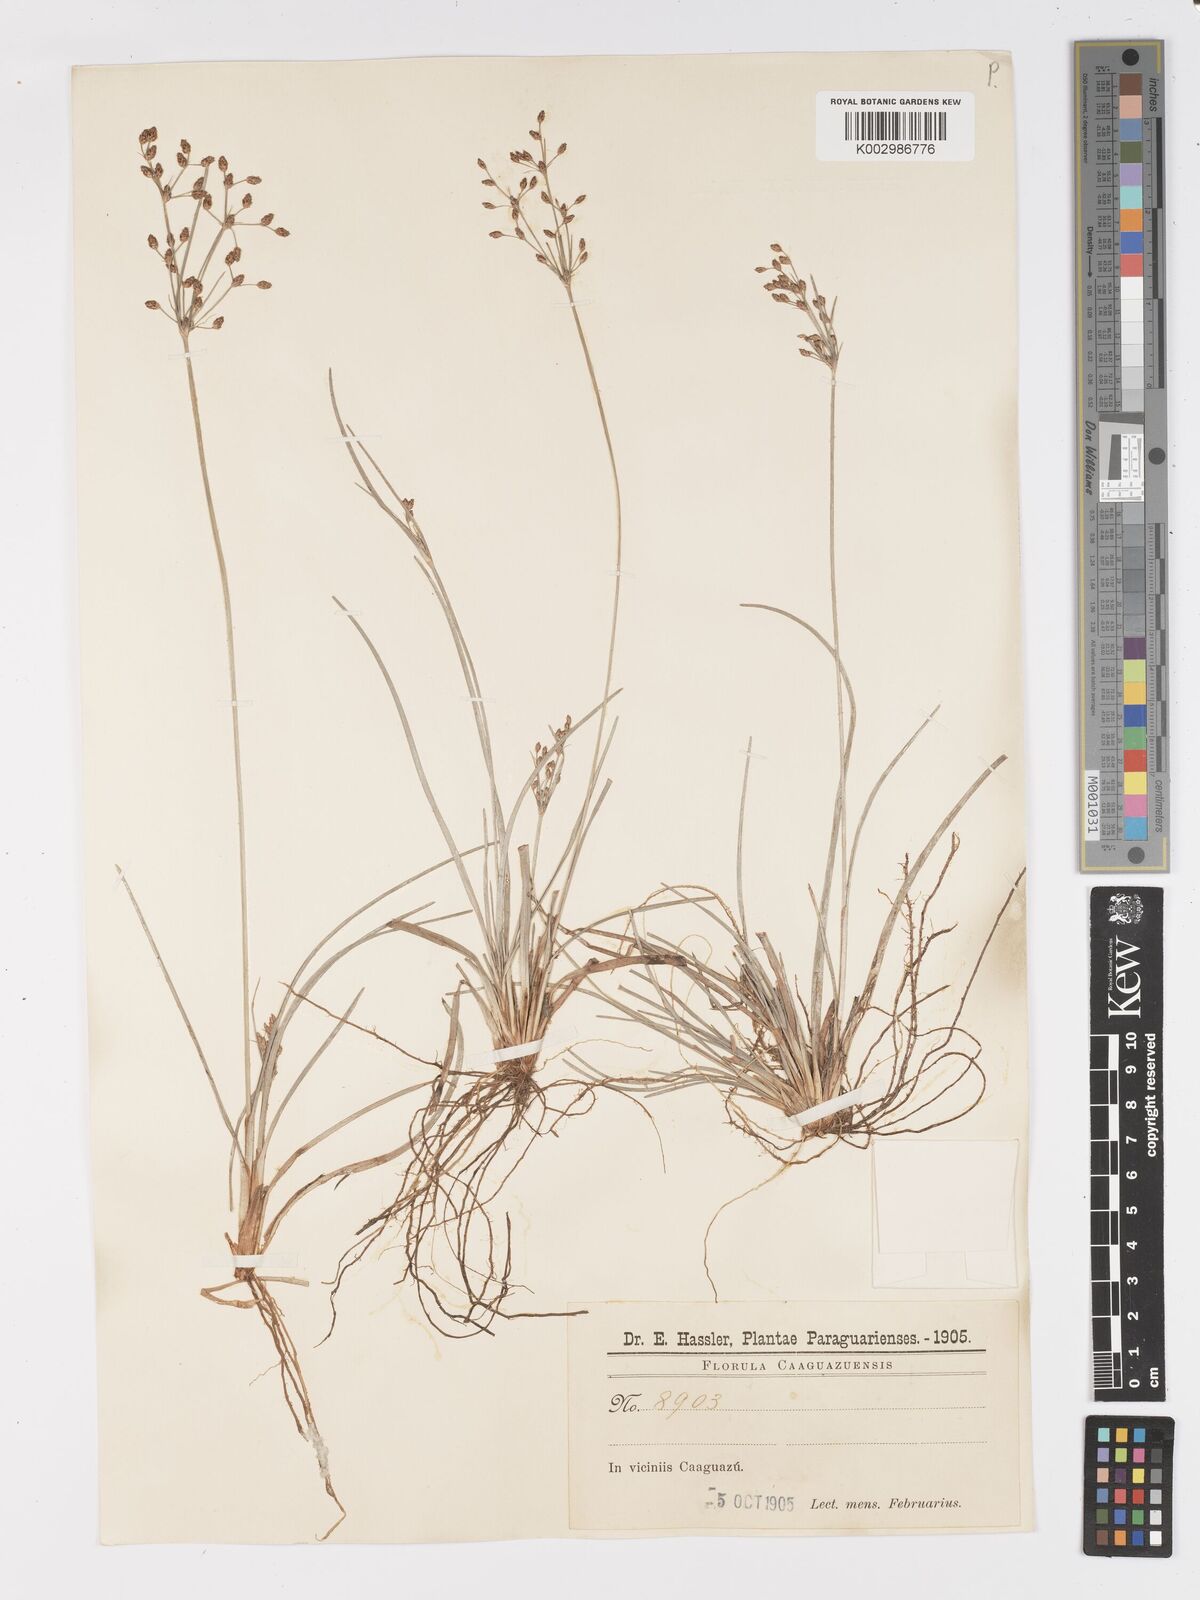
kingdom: Plantae
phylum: Tracheophyta
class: Liliopsida
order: Poales
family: Cyperaceae
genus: Fimbristylis
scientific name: Fimbristylis dichotoma
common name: Forked fimbry
